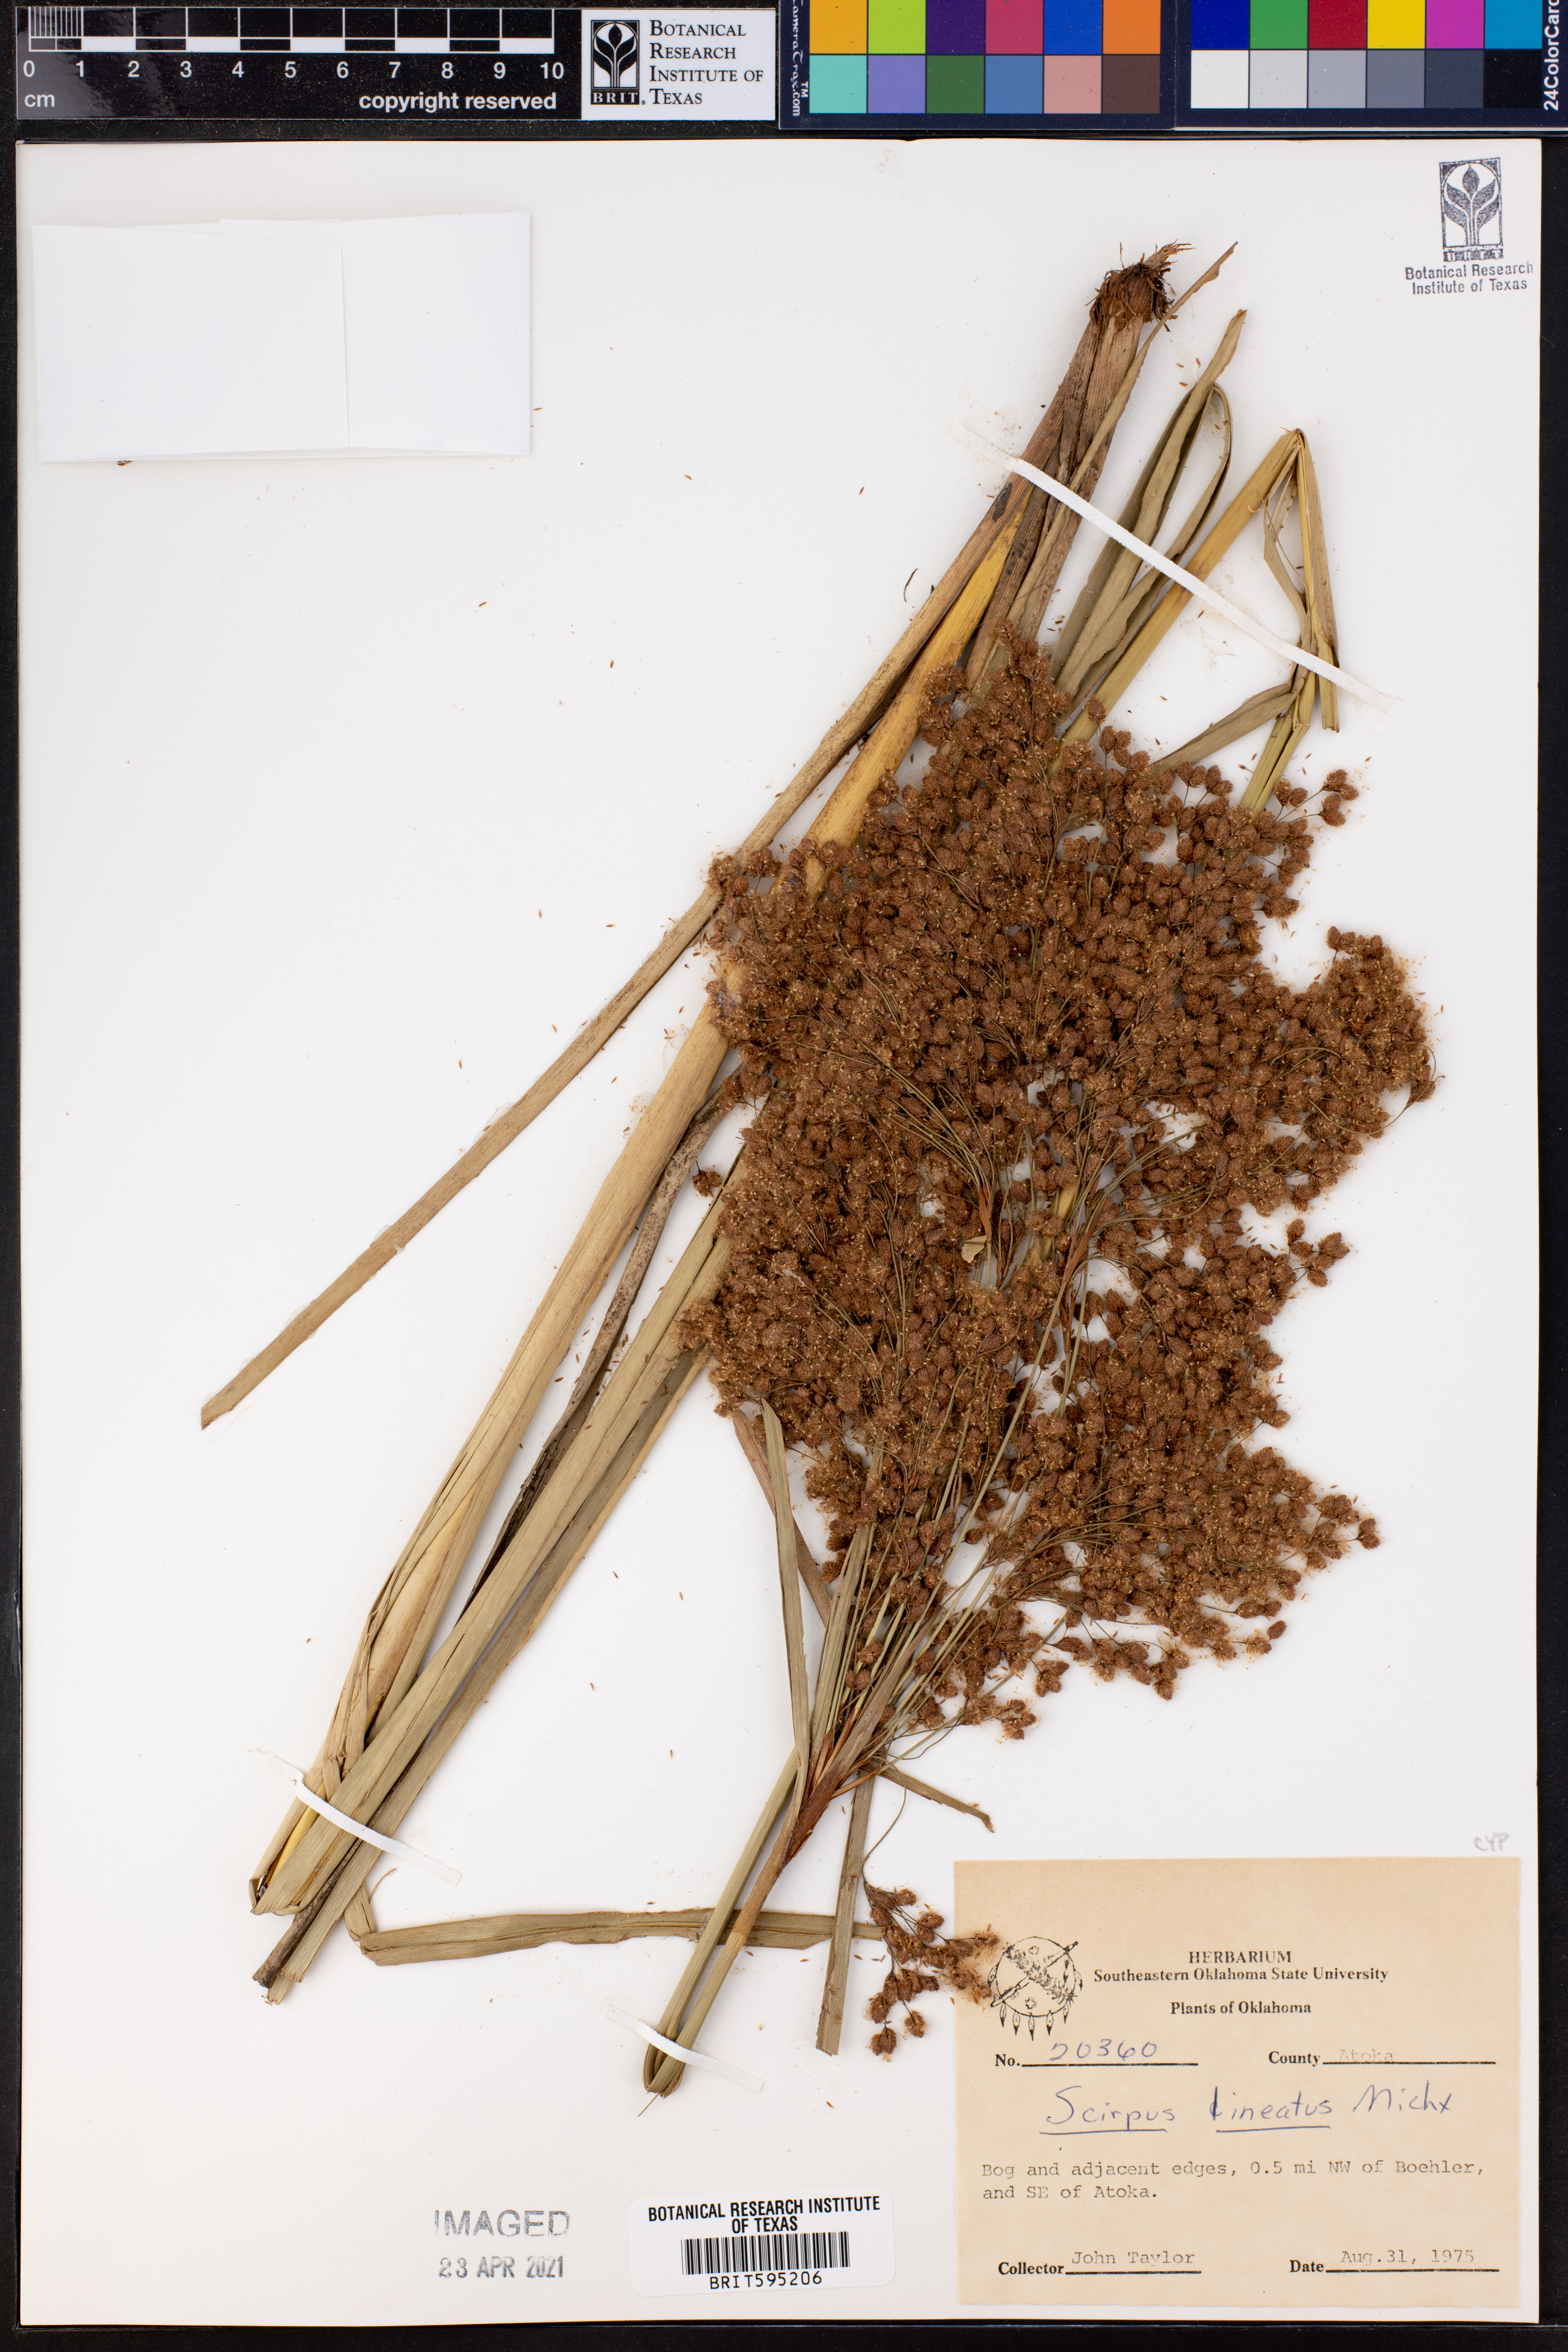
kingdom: Plantae
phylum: Tracheophyta
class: Liliopsida
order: Poales
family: Cyperaceae
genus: Scirpus
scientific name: Scirpus lineatus
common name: Drooping bulrush
